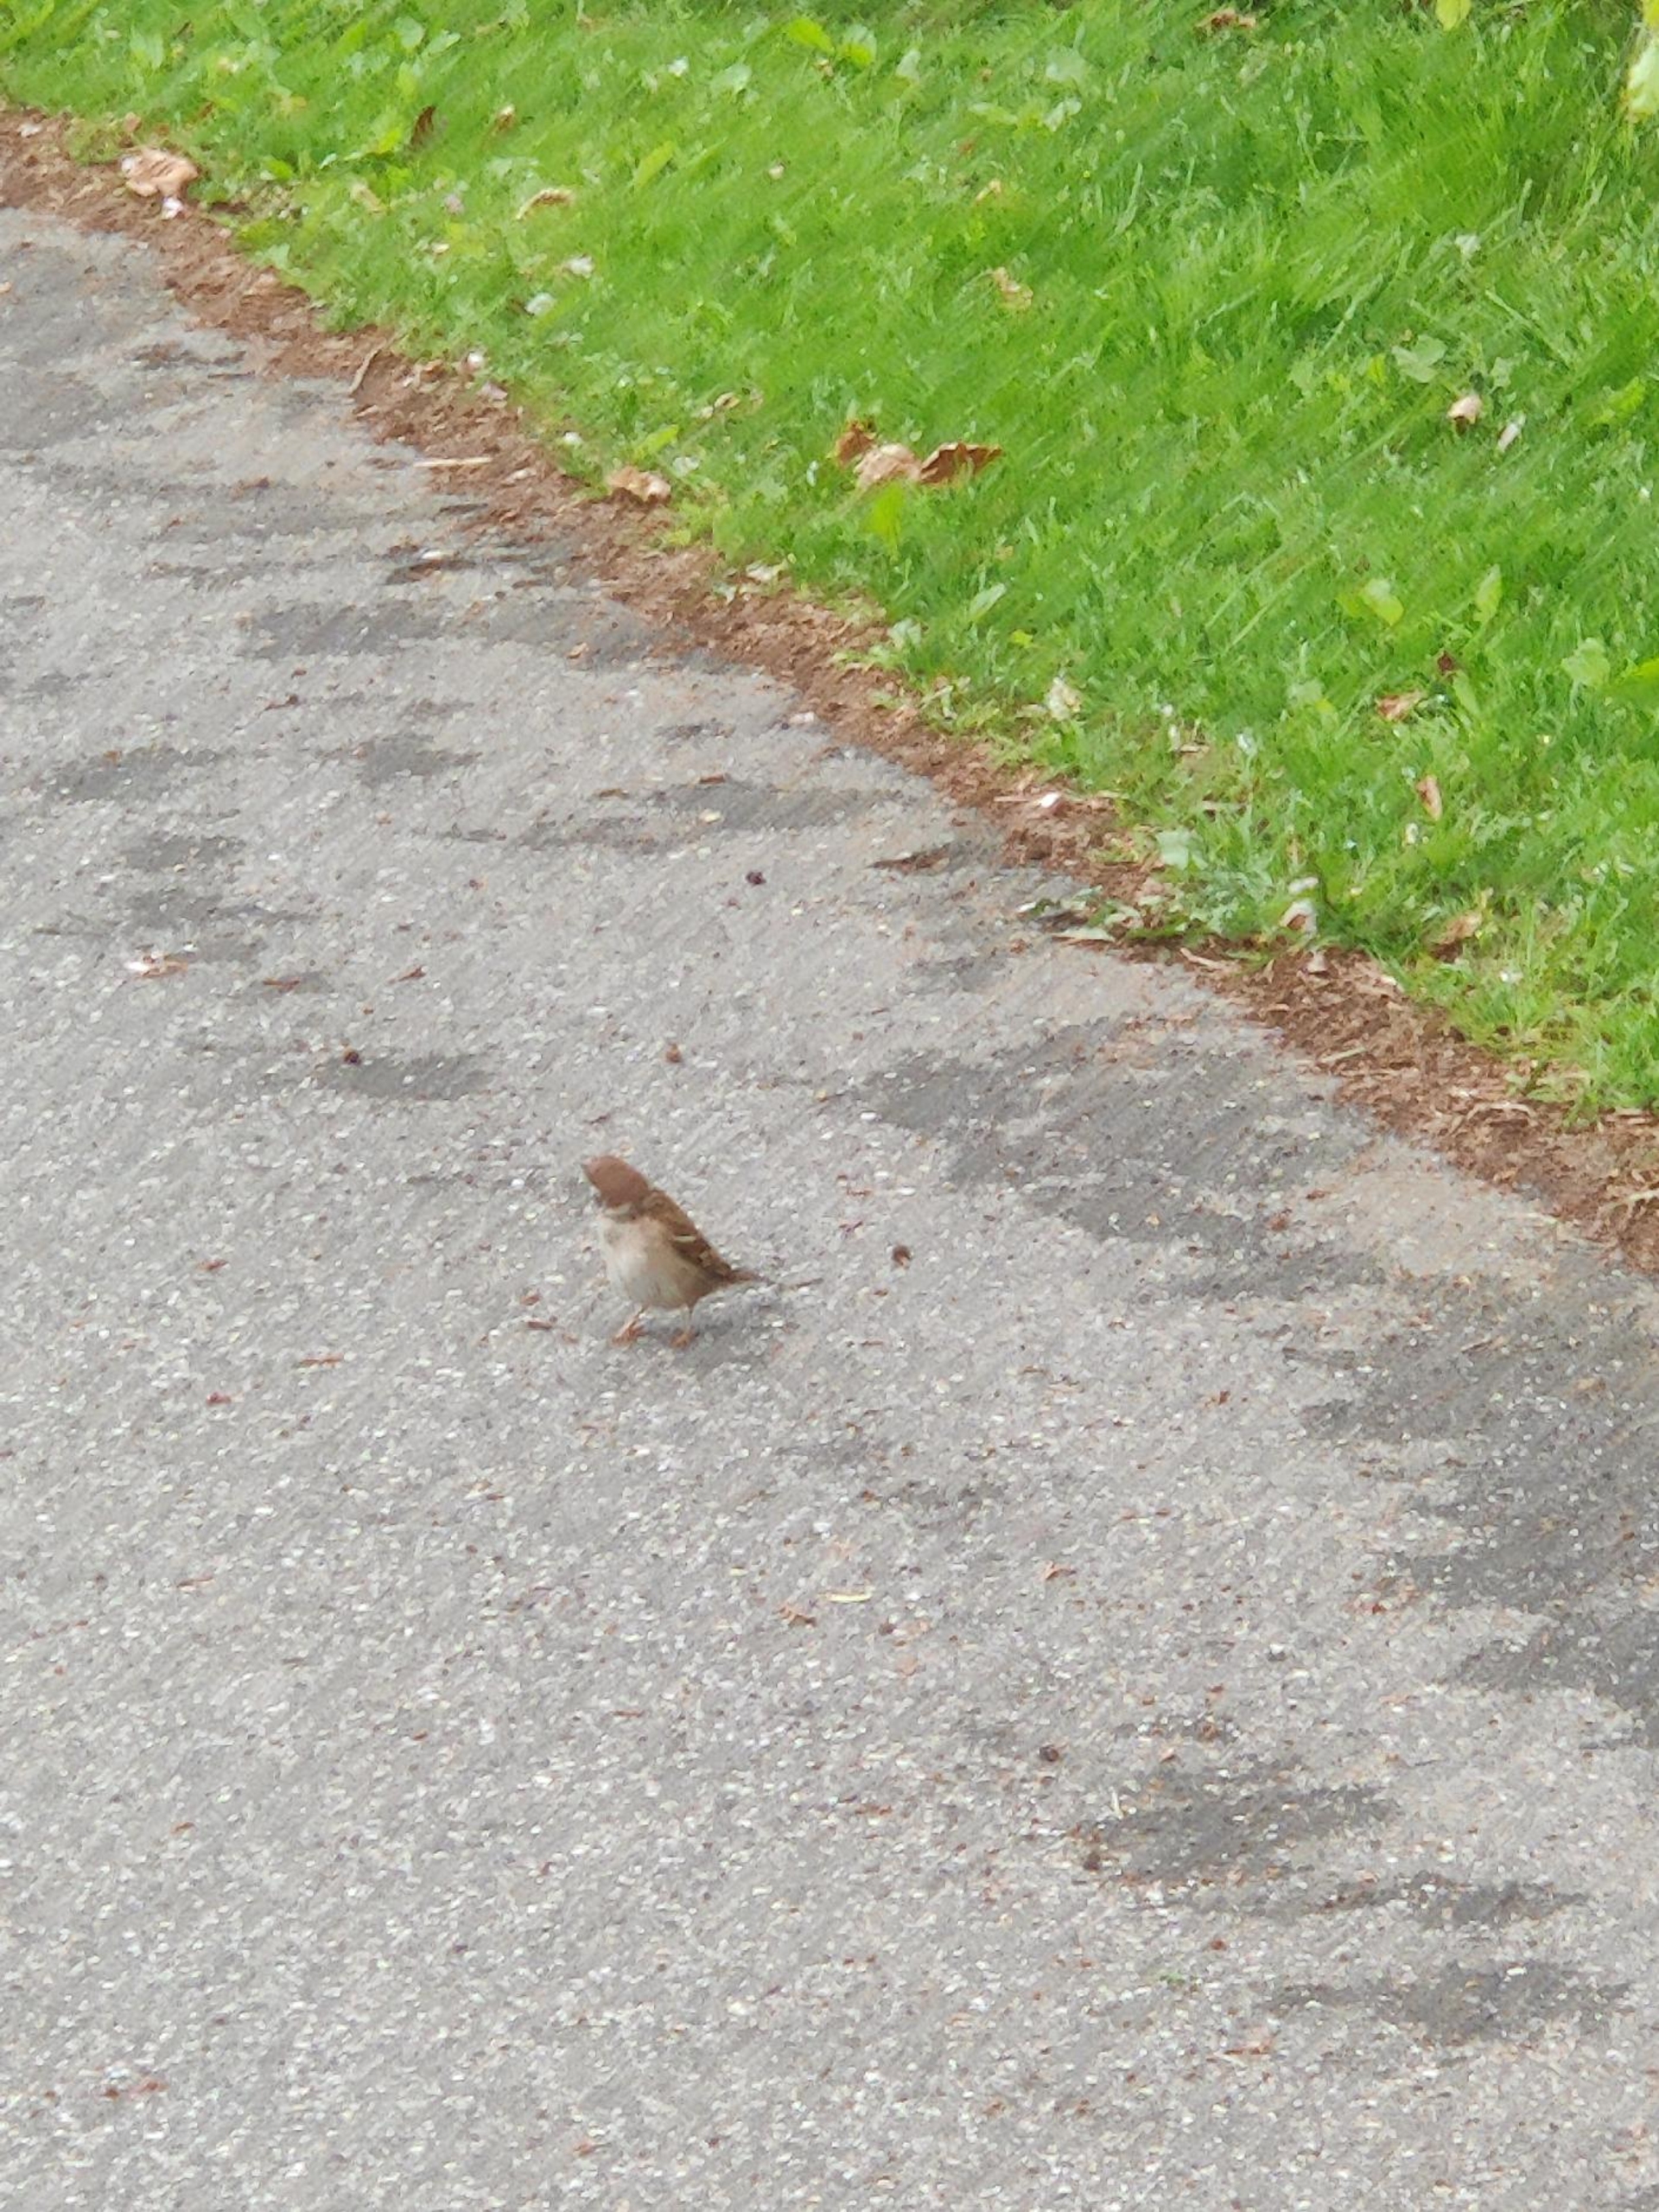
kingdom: Animalia
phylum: Chordata
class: Aves
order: Passeriformes
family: Passeridae
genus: Passer
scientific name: Passer montanus
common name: Skovspurv
